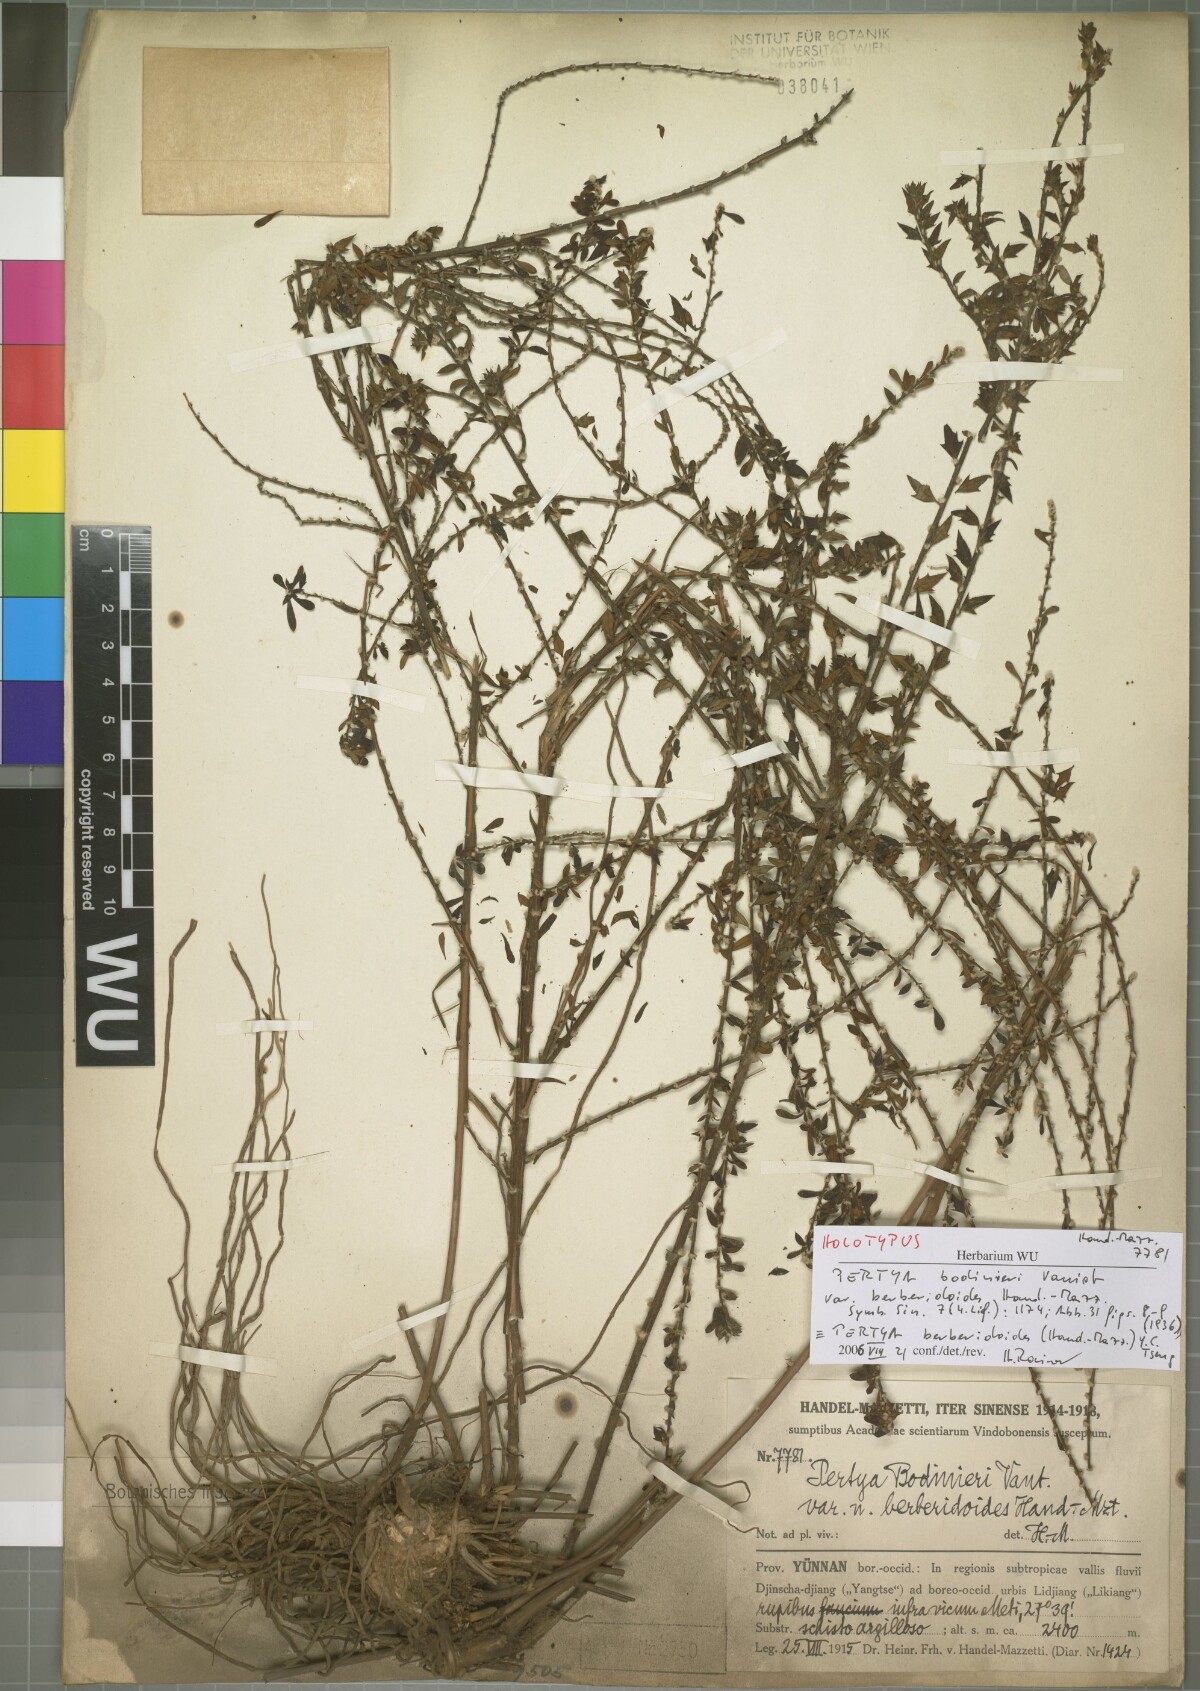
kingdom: Plantae
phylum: Tracheophyta
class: Magnoliopsida
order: Asterales
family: Asteraceae
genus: Pertya
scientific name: Pertya berberidoides
